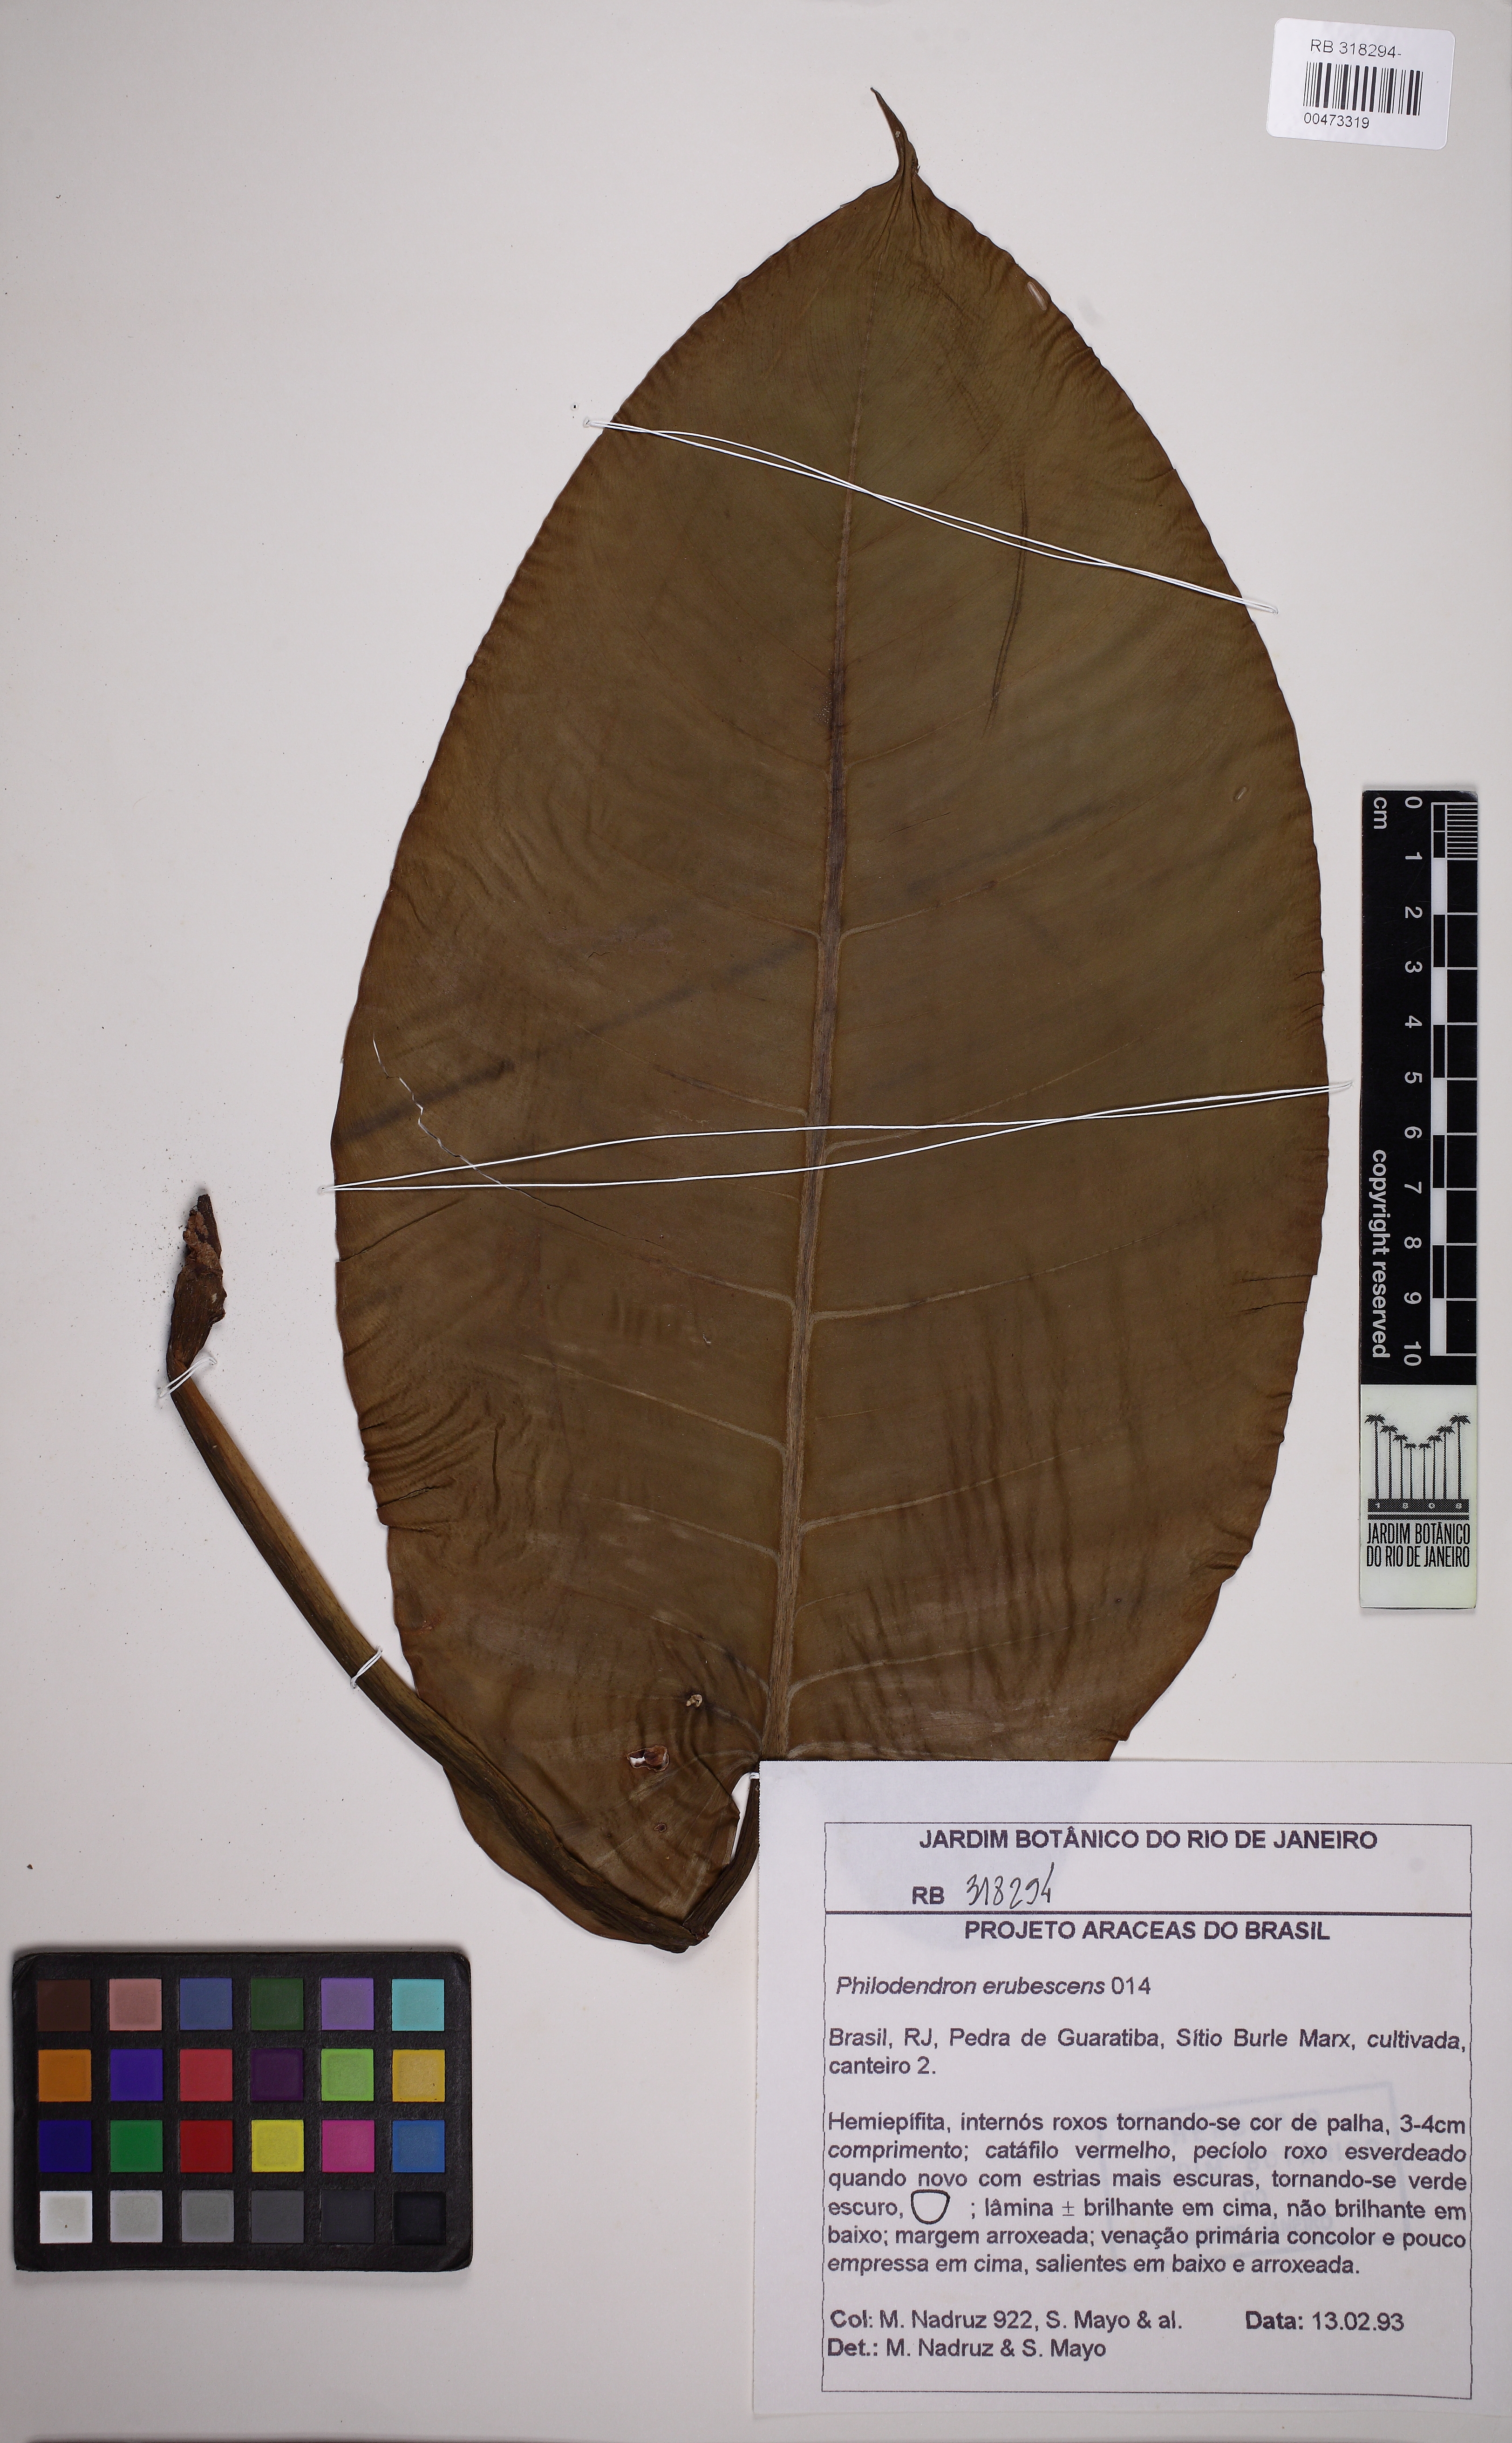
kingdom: Plantae
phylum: Tracheophyta
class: Liliopsida
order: Alismatales
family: Araceae
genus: Philodendron
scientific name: Philodendron erubescens
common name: Philodendron
